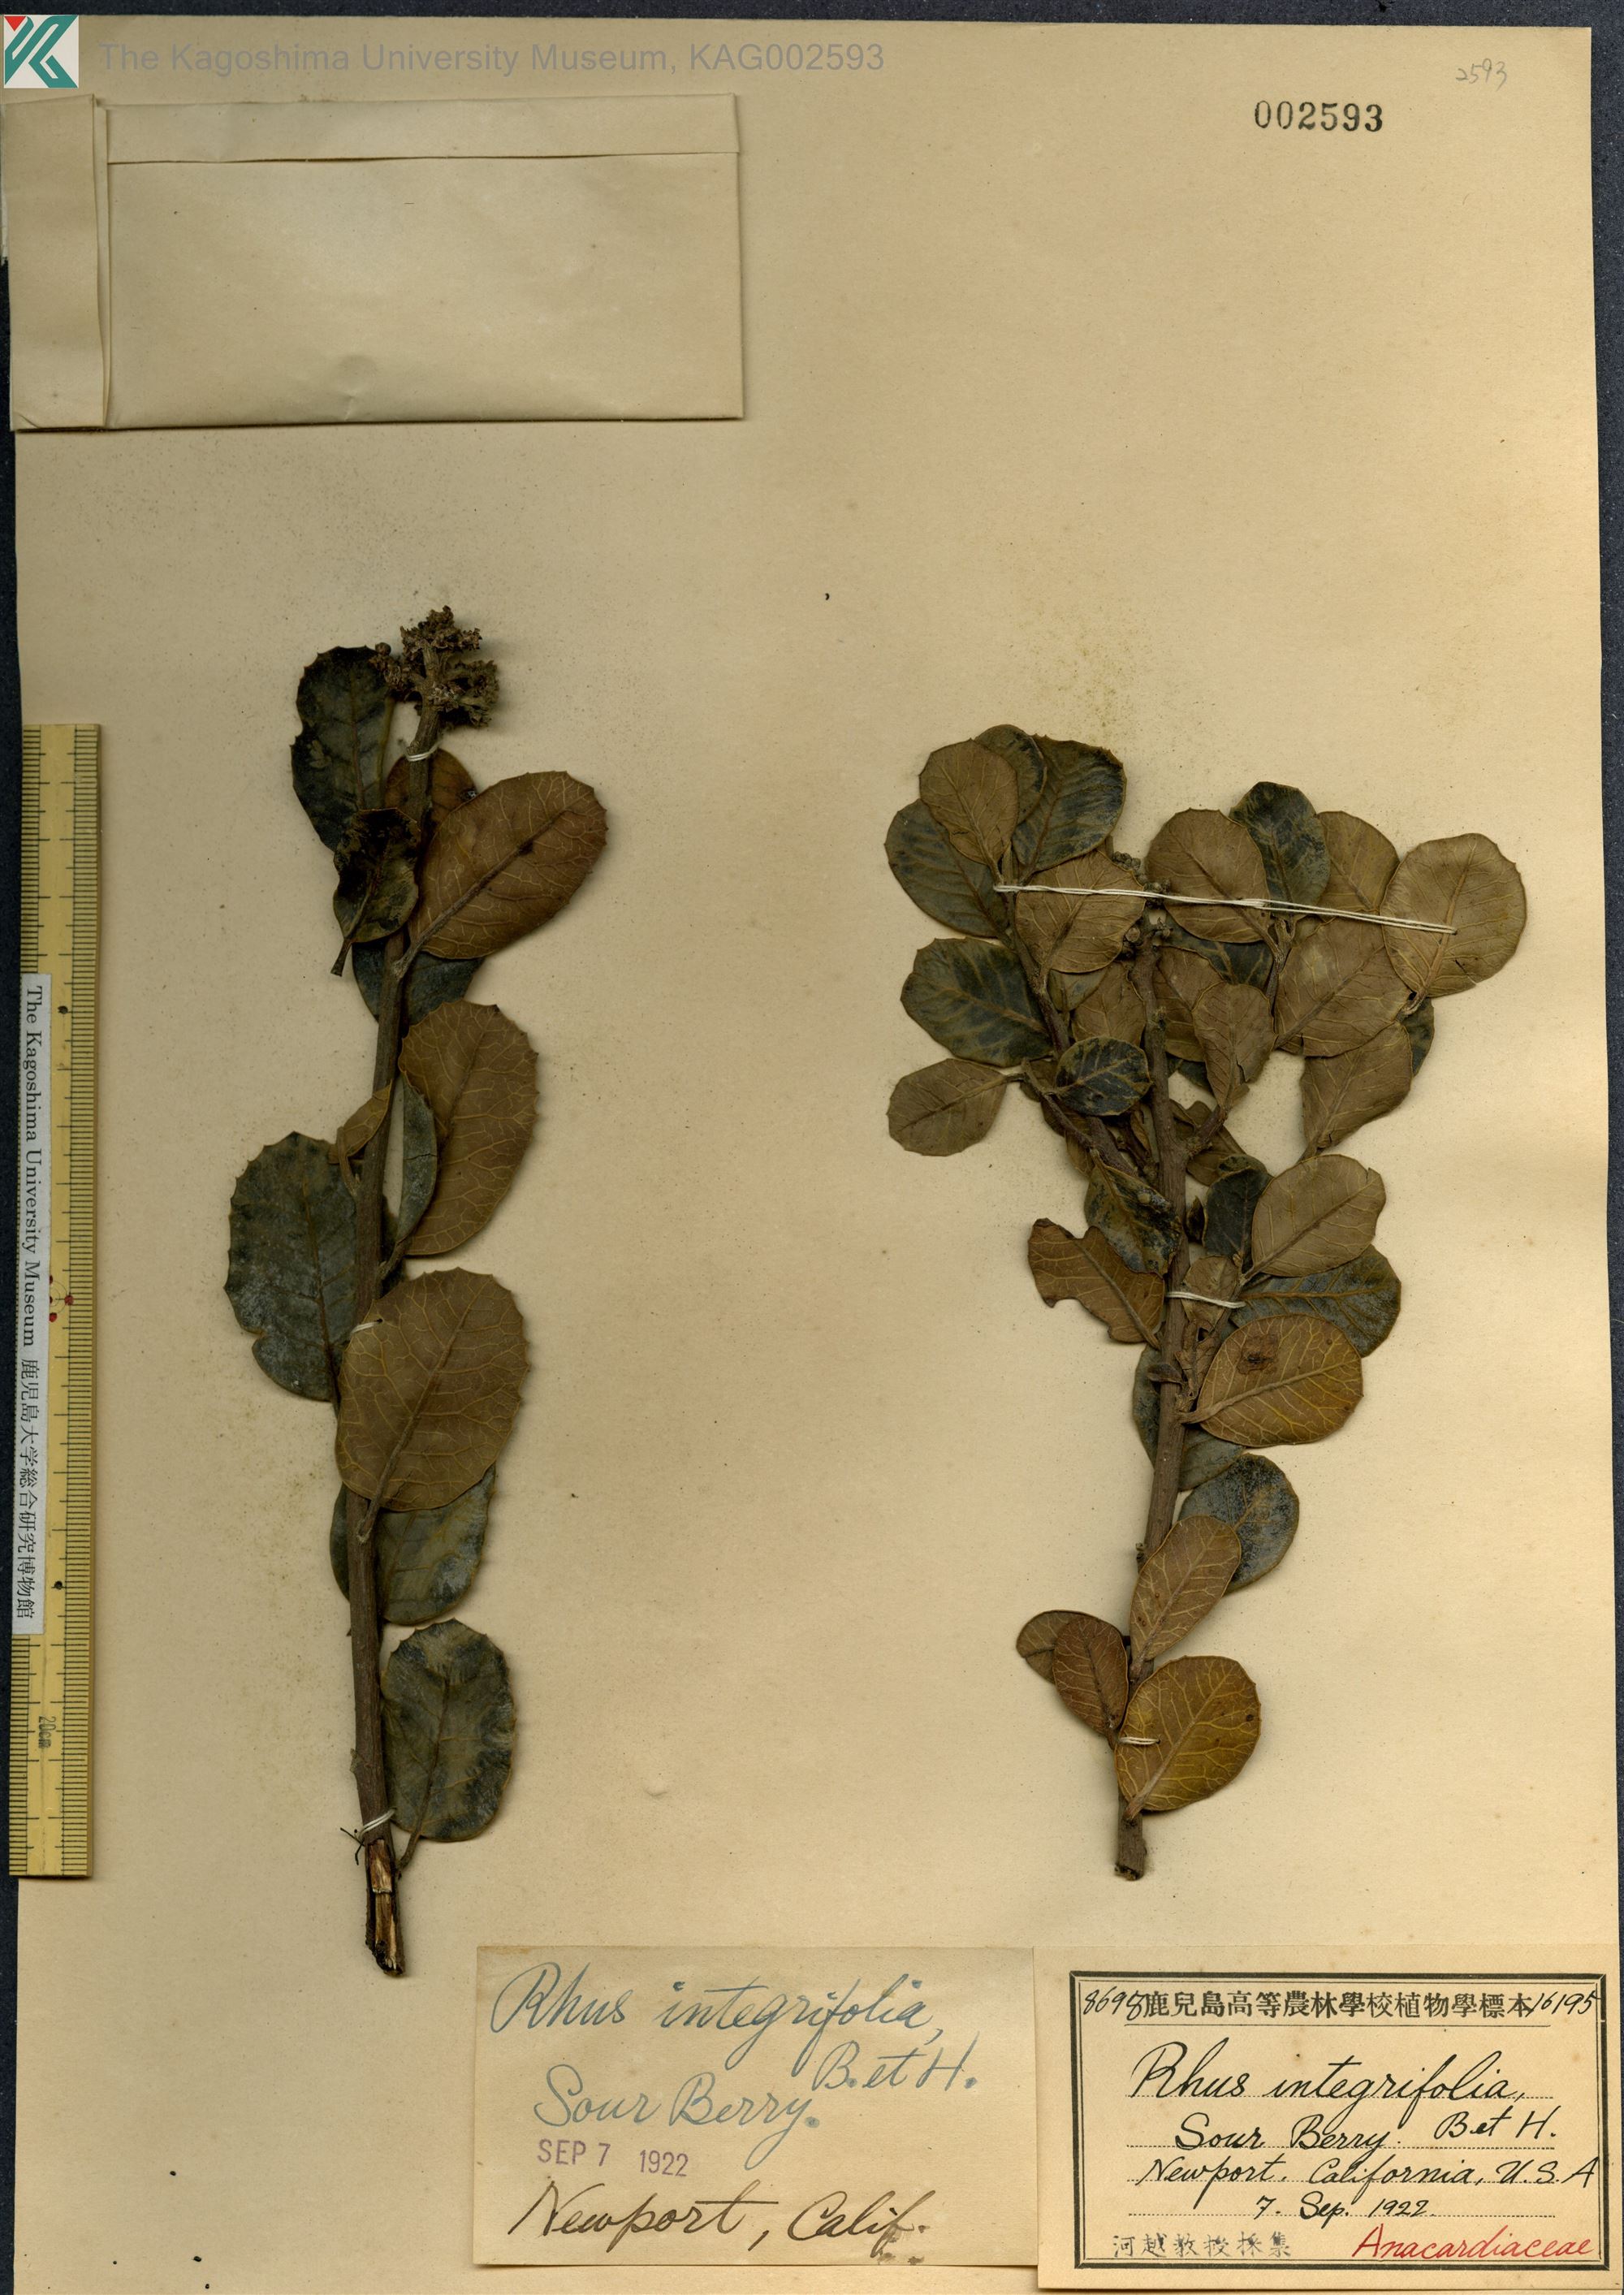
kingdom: Plantae
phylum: Tracheophyta
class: Magnoliopsida
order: Sapindales
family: Anacardiaceae
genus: Rhus
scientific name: Rhus integrifolia
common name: Lemonade sumac
